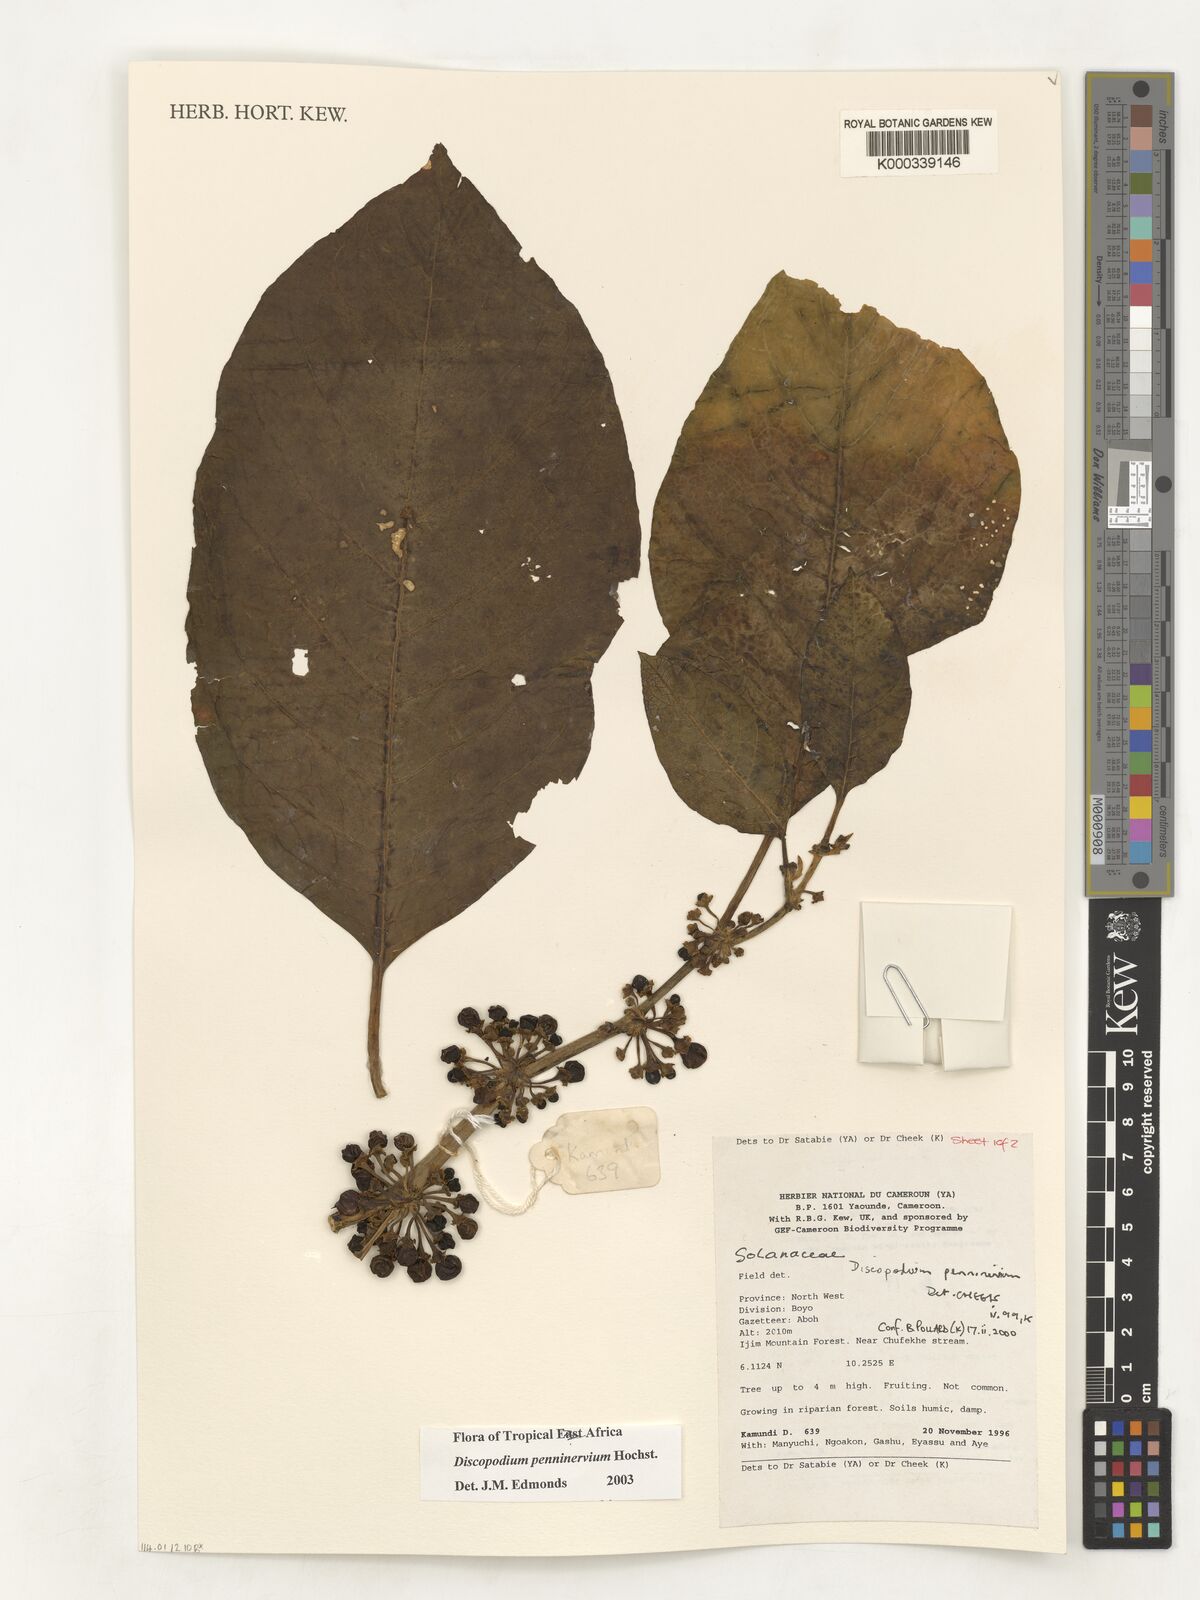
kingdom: Plantae
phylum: Tracheophyta
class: Magnoliopsida
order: Solanales
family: Solanaceae
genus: Discopodium
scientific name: Discopodium penninervium
